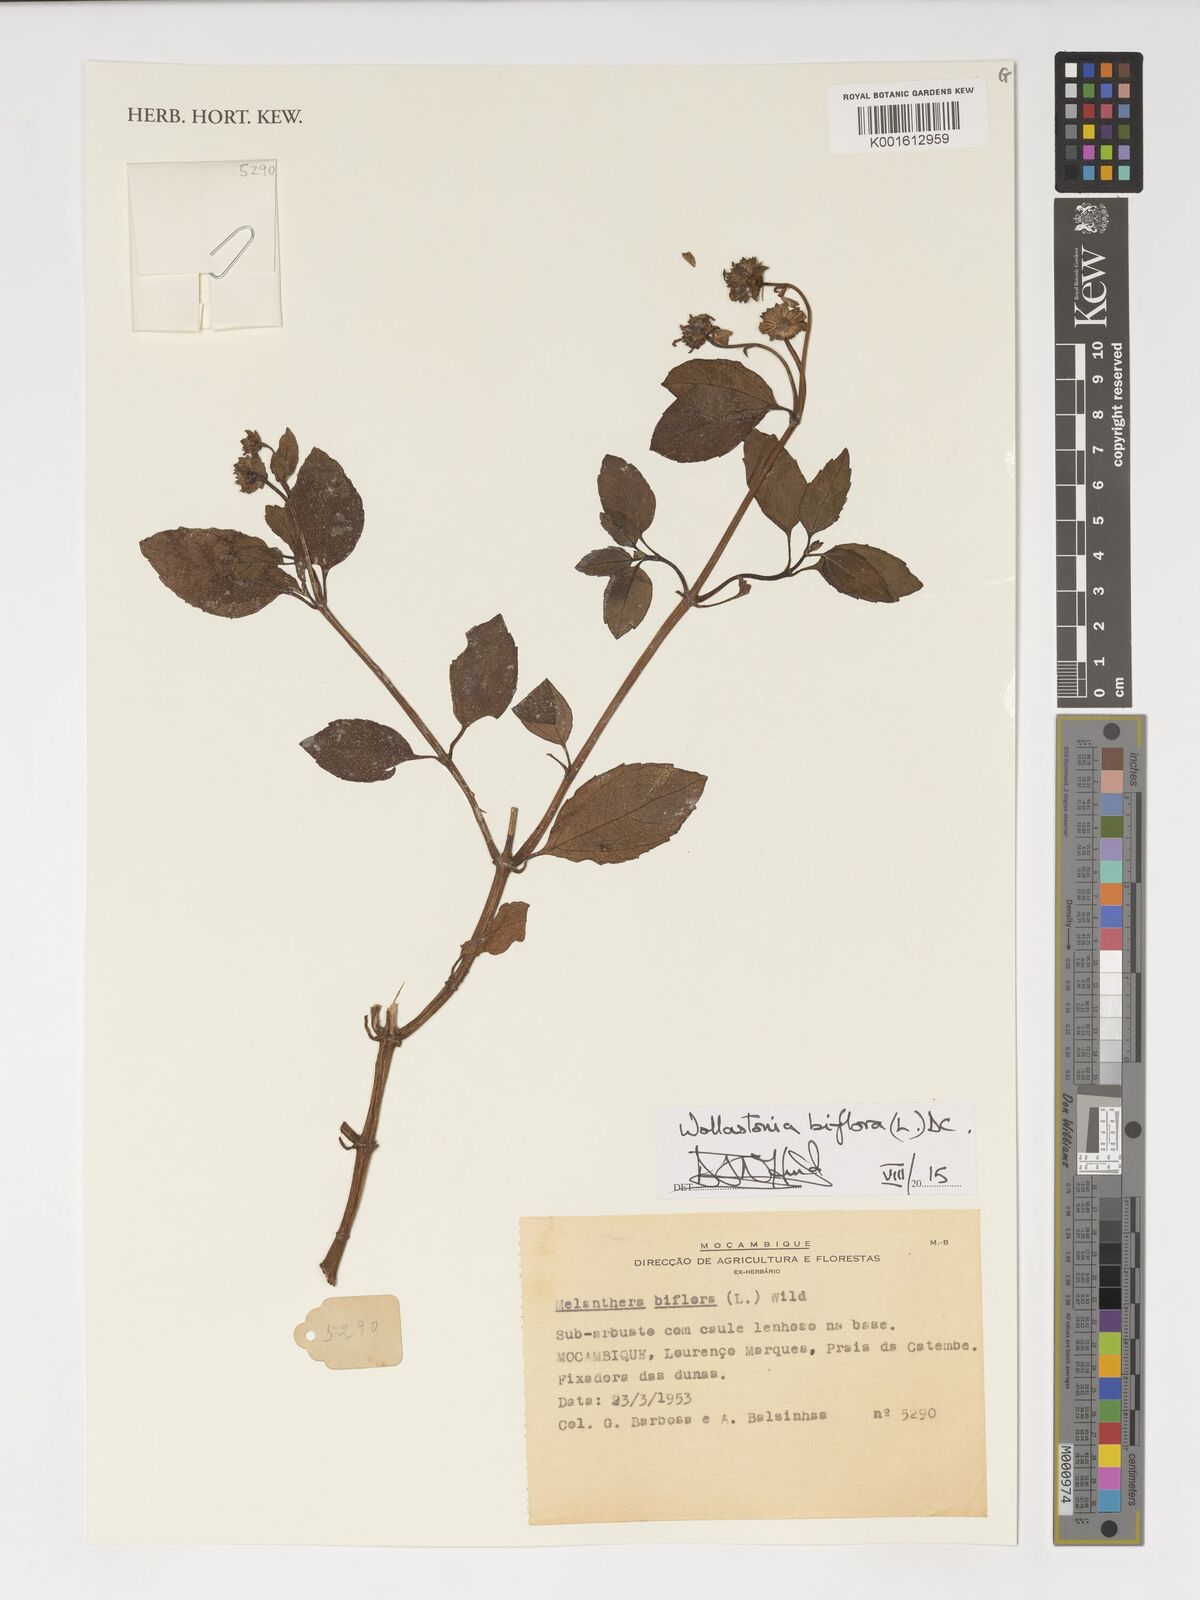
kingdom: Plantae
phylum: Tracheophyta
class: Magnoliopsida
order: Asterales
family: Asteraceae
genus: Wollastonia
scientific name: Wollastonia biflora
